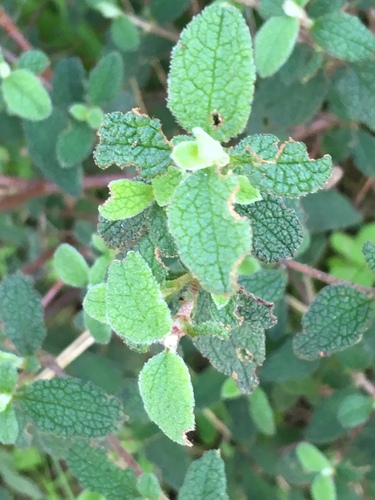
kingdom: Plantae
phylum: Tracheophyta
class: Magnoliopsida
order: Malvales
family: Cistaceae
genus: Cistus
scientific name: Cistus salviifolius
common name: Salvia cistus
